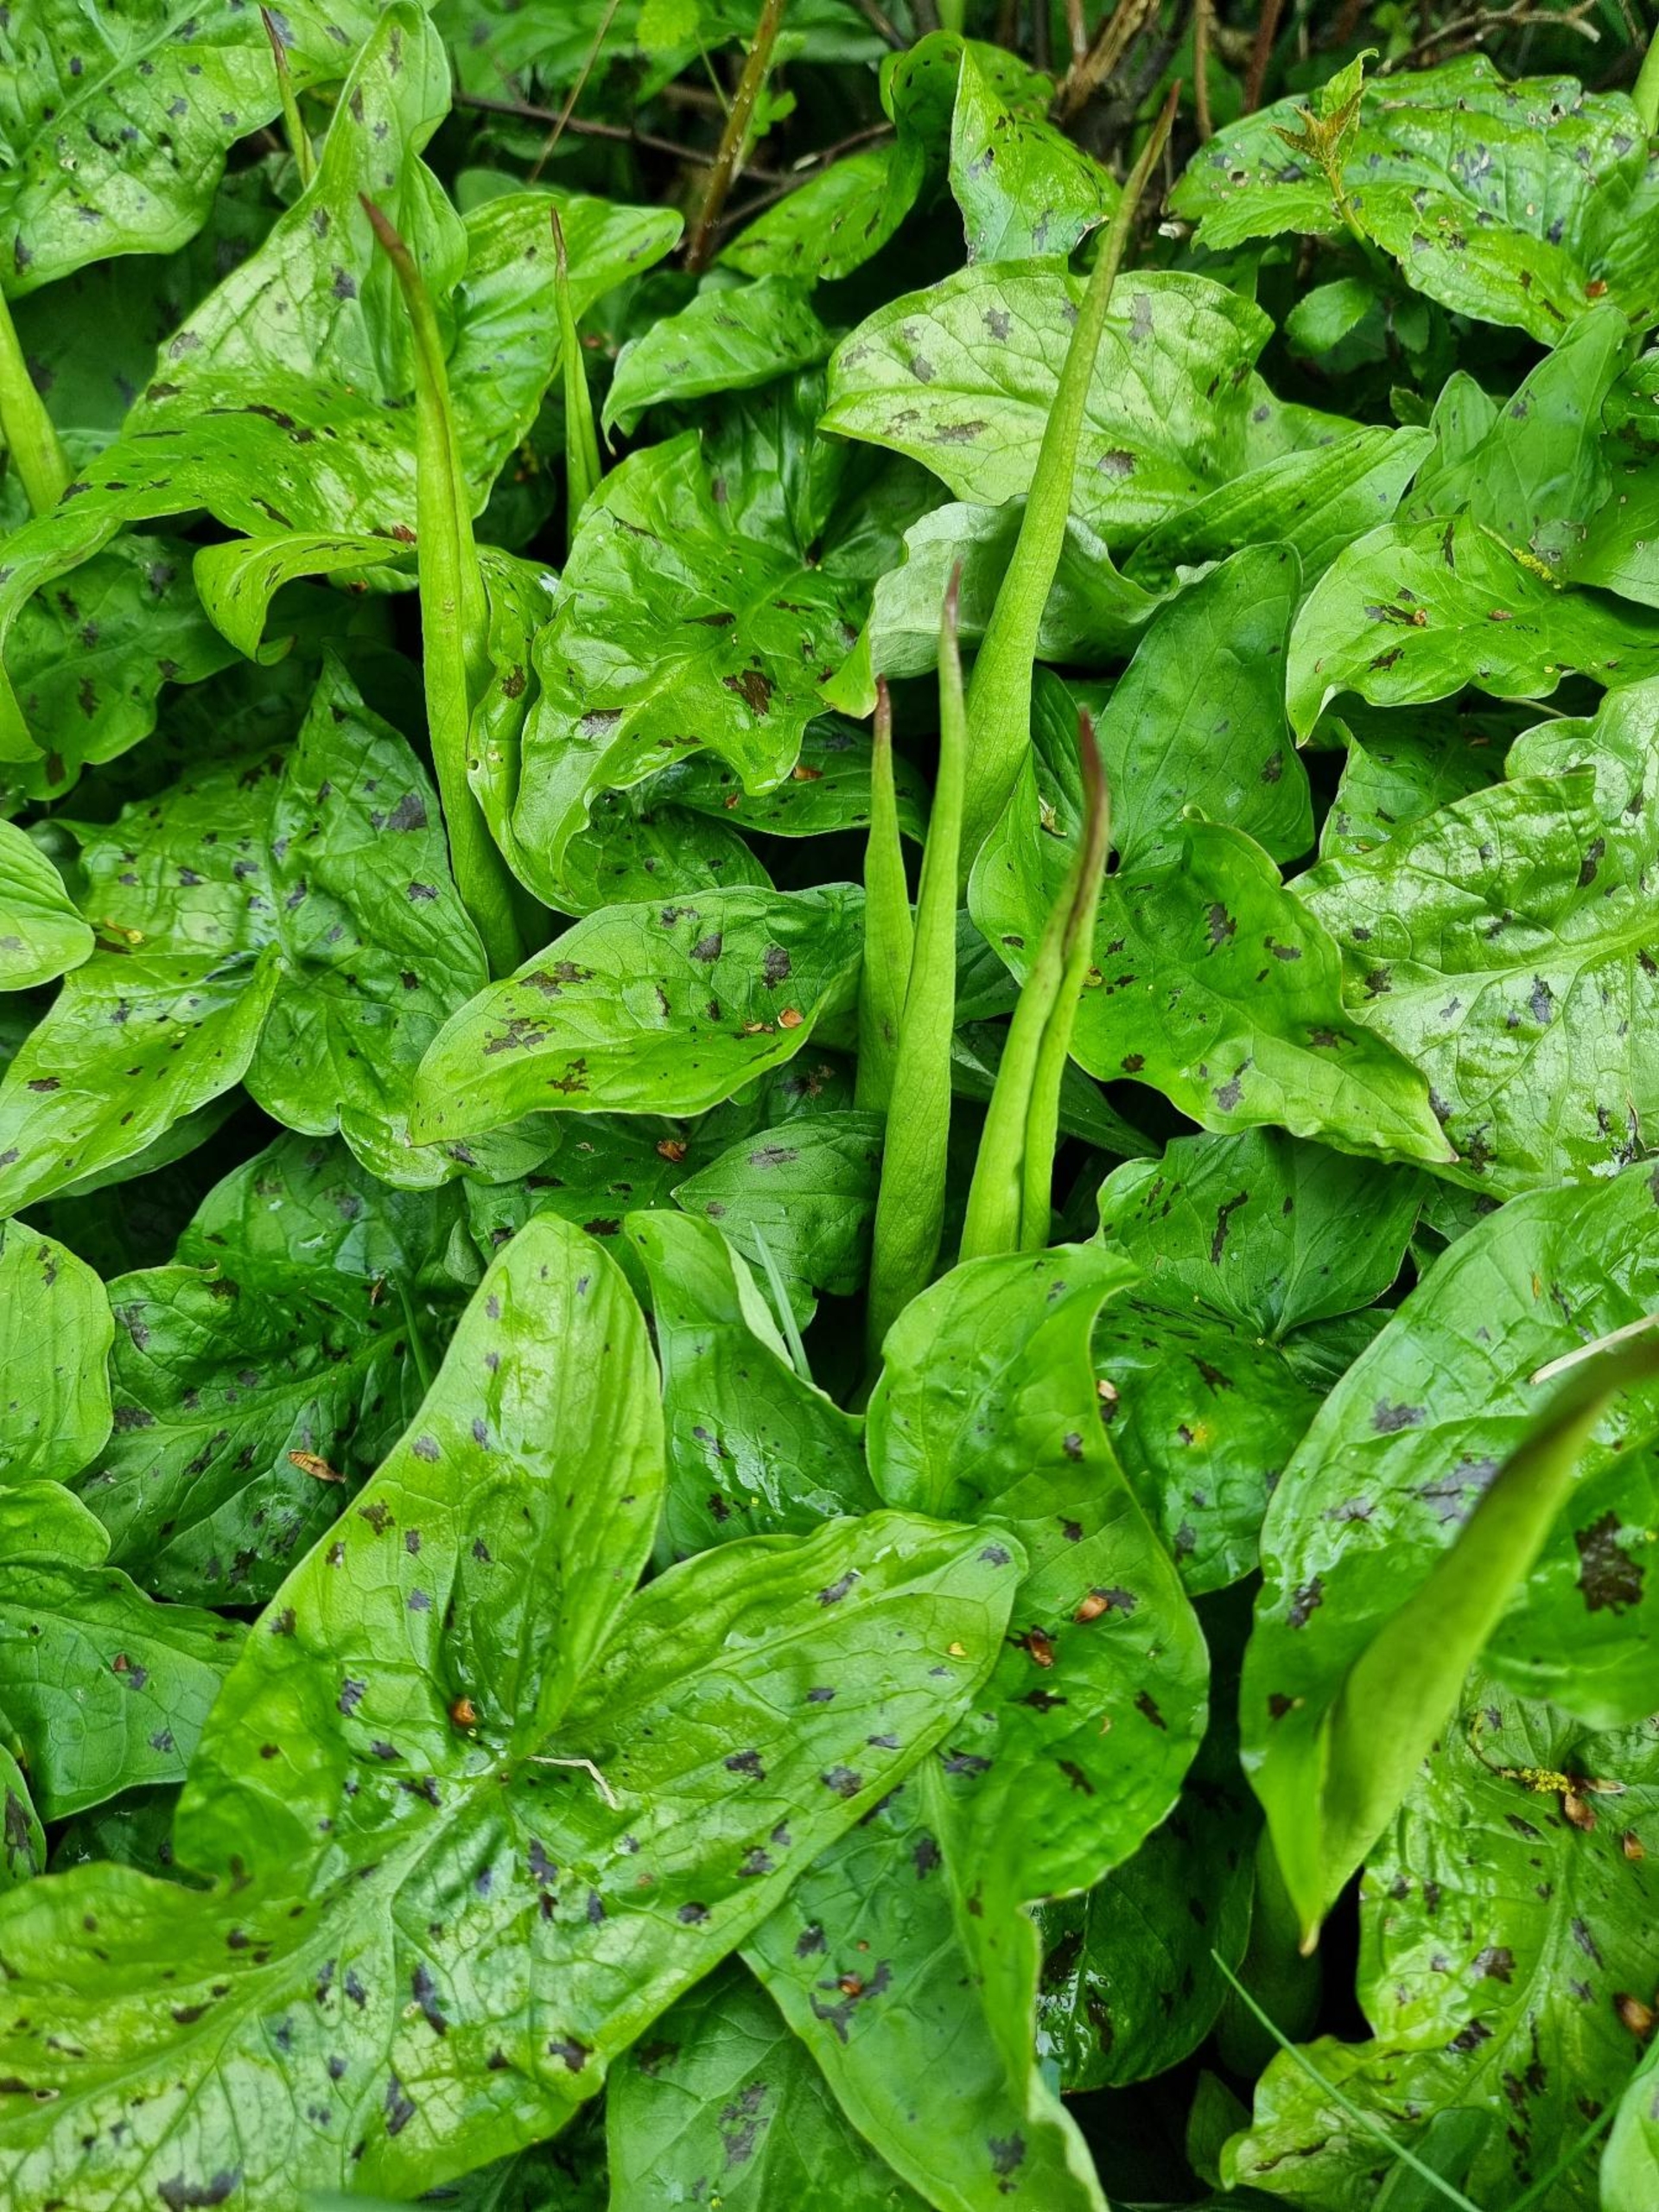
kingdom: Plantae
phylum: Tracheophyta
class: Liliopsida
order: Alismatales
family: Araceae
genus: Arum
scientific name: Arum maculatum
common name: Plettet arum
